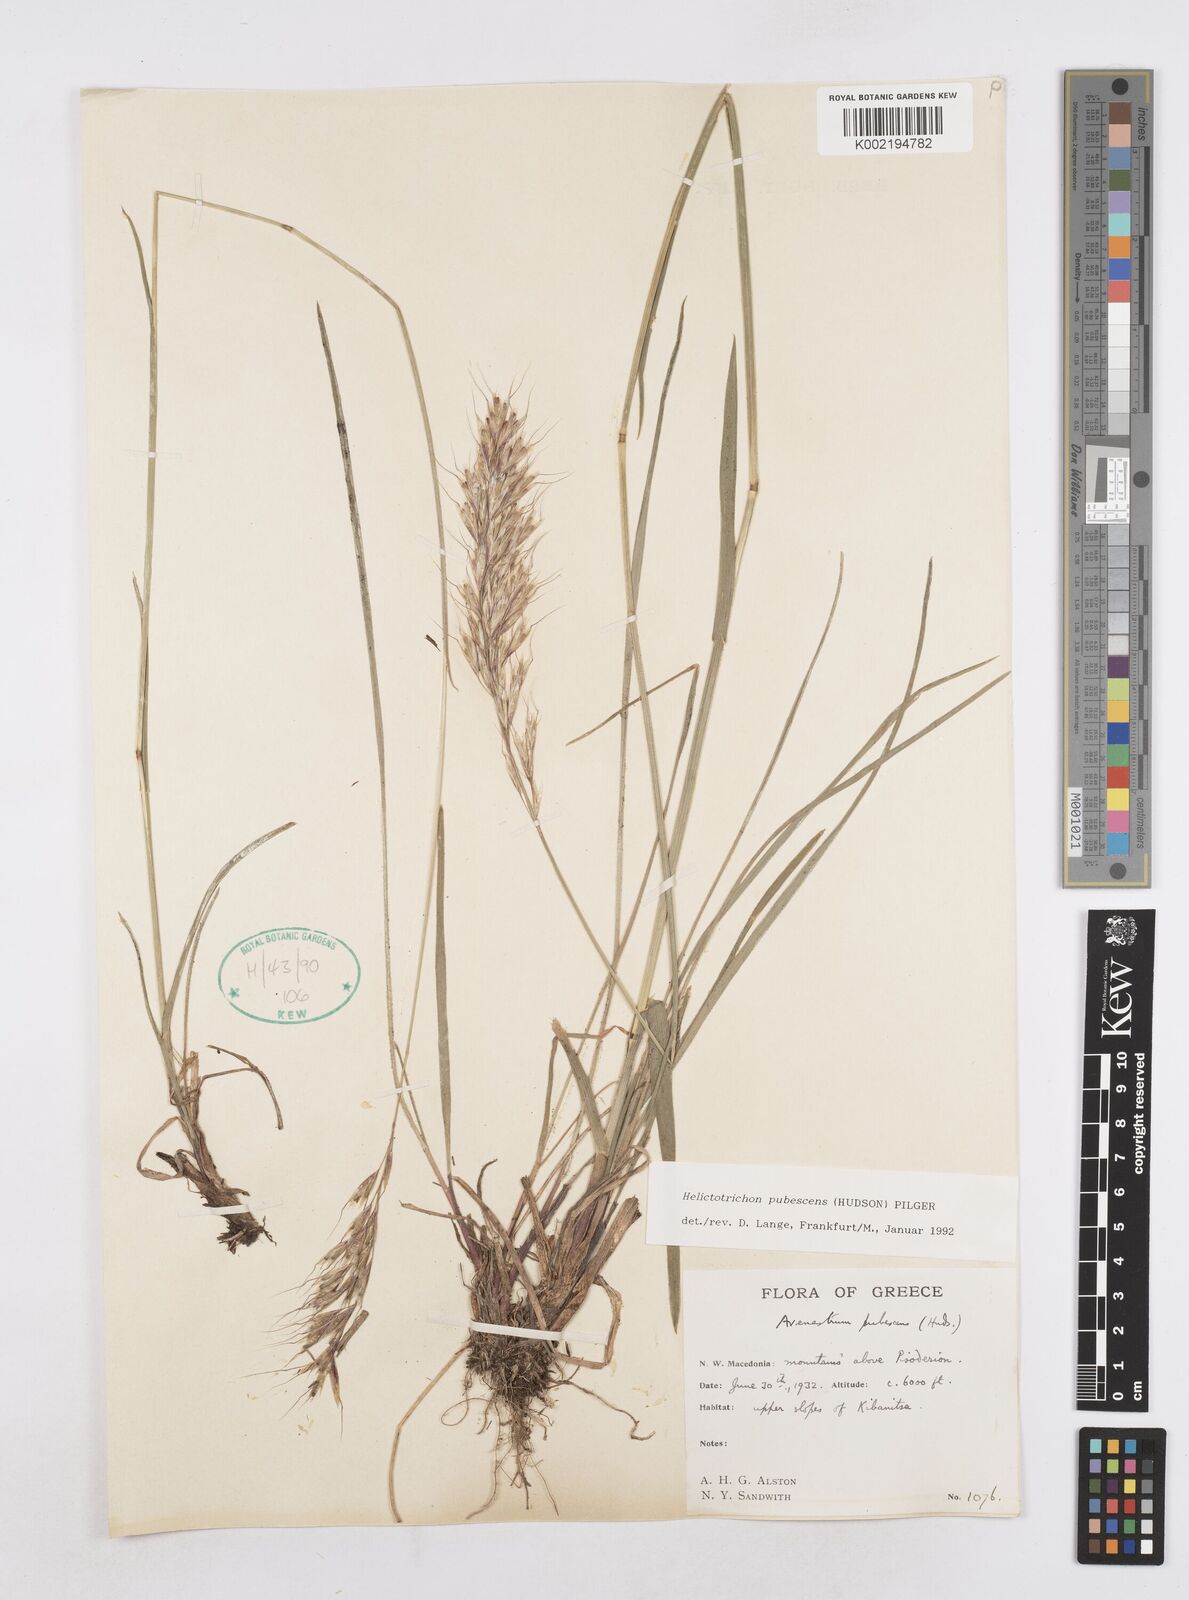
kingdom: Plantae
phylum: Tracheophyta
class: Liliopsida
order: Poales
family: Poaceae
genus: Avenula
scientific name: Avenula pubescens
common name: Downy alpine oatgrass
